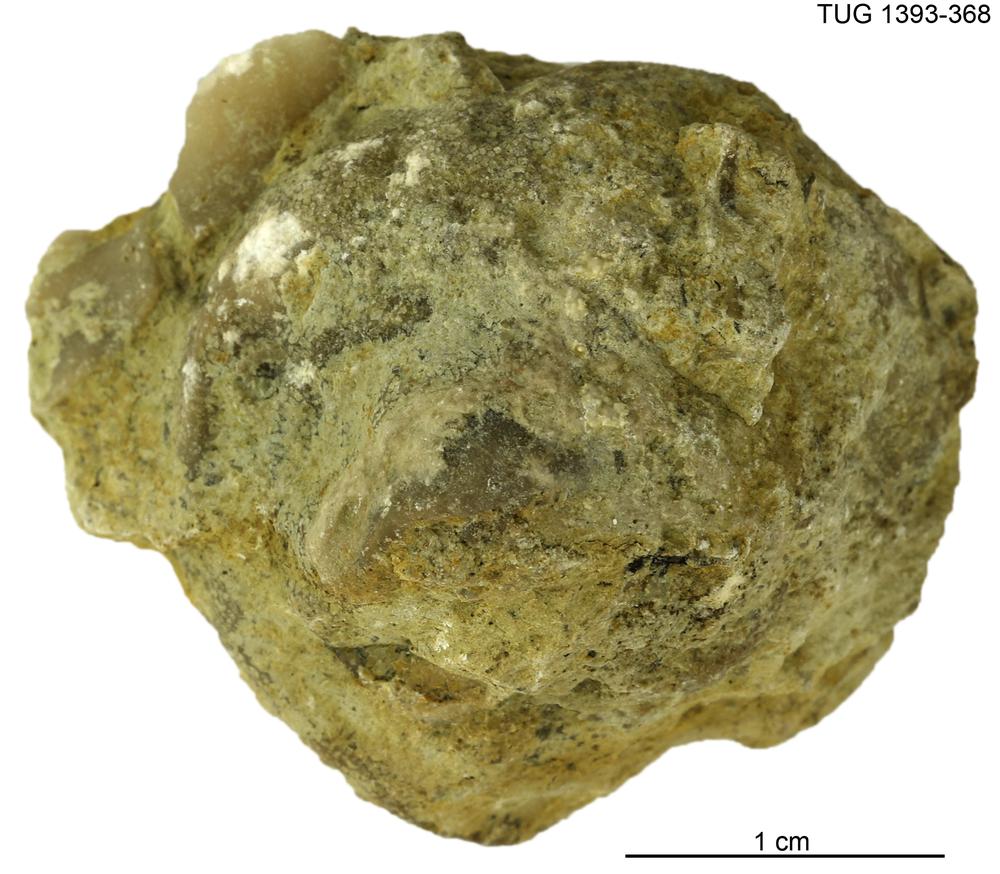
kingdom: Animalia
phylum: Bryozoa
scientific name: Bryozoa
